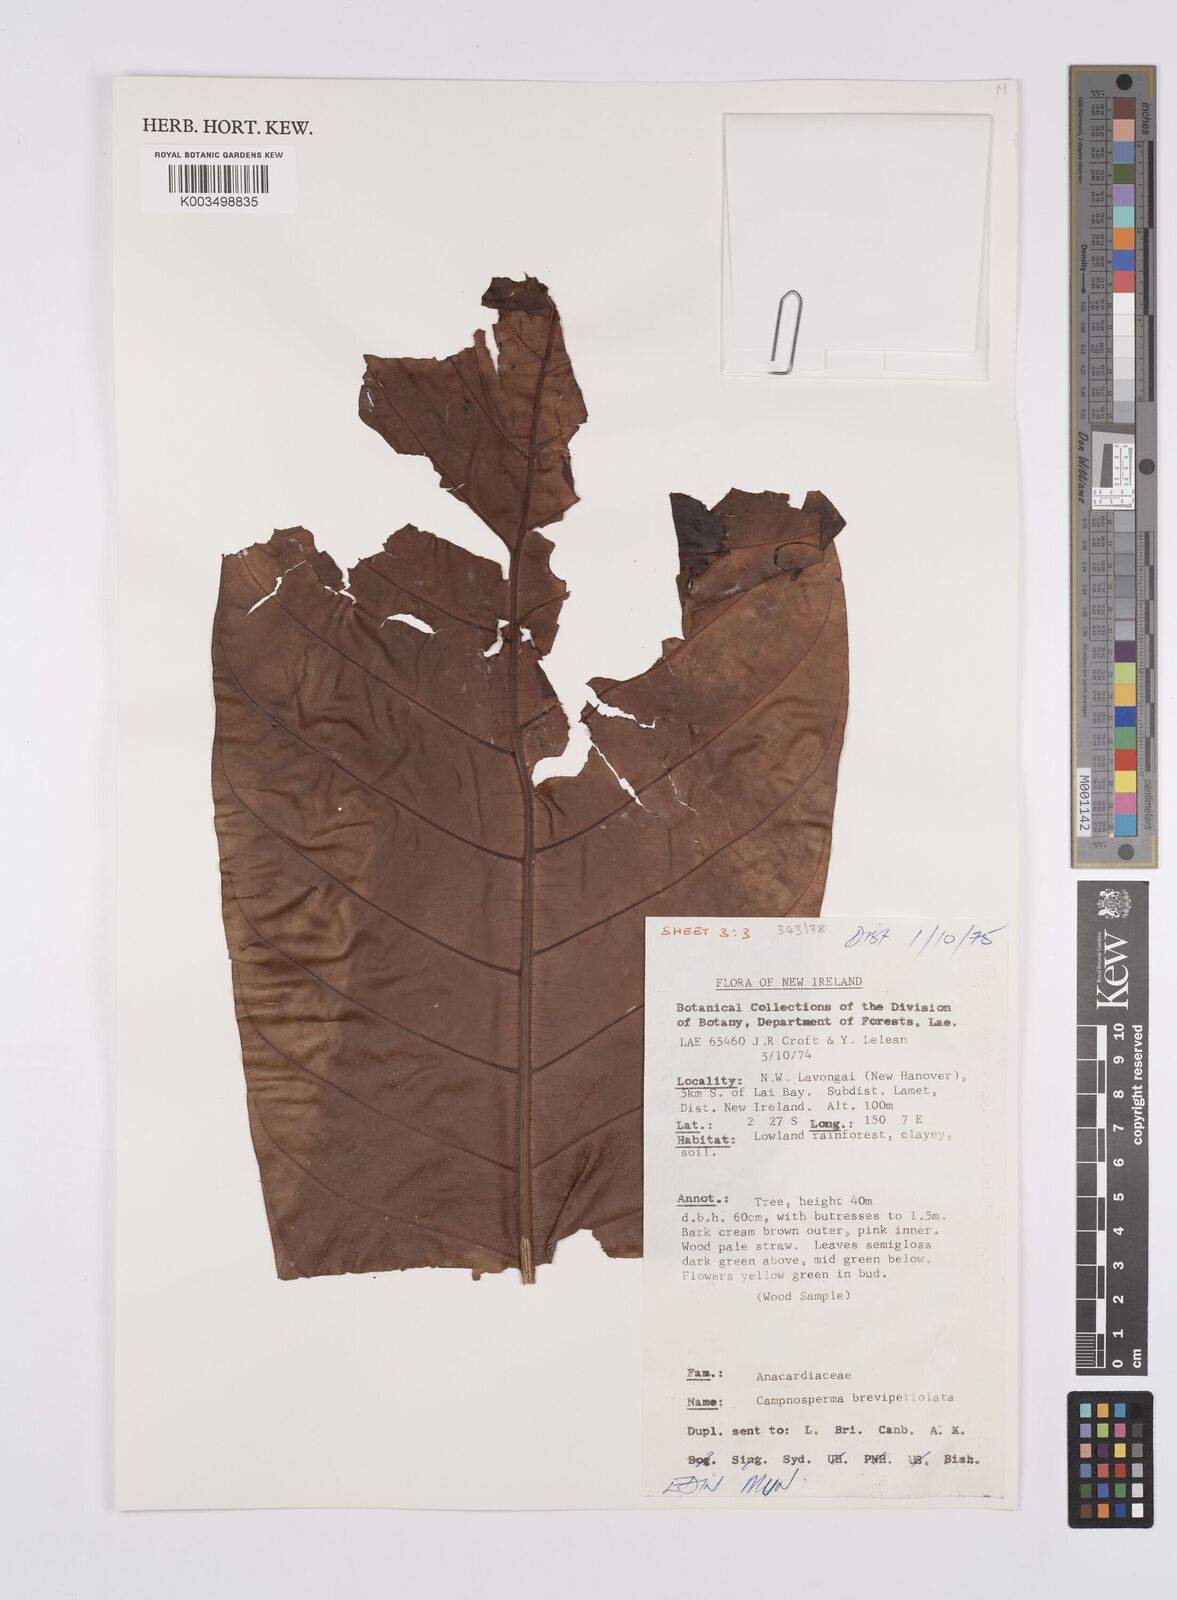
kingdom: Plantae
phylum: Tracheophyta
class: Magnoliopsida
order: Sapindales
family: Anacardiaceae
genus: Campnosperma
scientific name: Campnosperma brevipetiolatum
